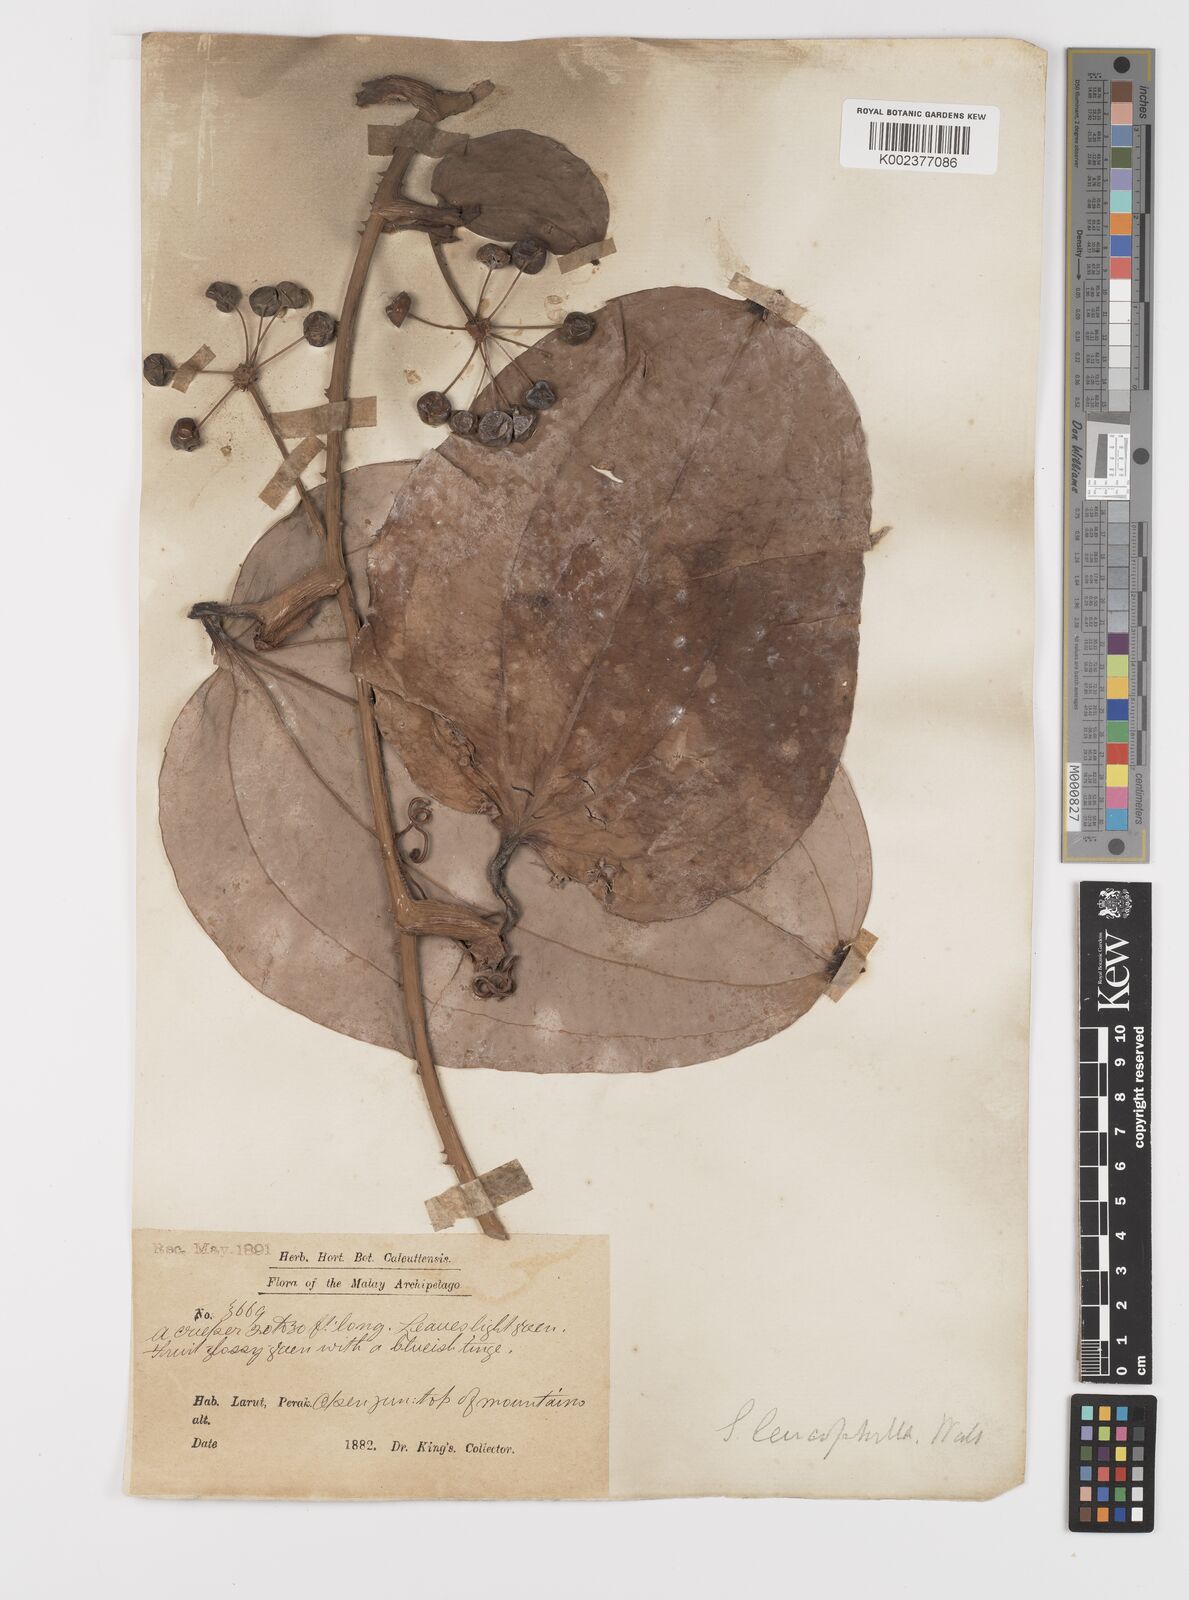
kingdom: Plantae
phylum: Tracheophyta
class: Liliopsida
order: Liliales
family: Smilacaceae
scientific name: Smilacaceae
